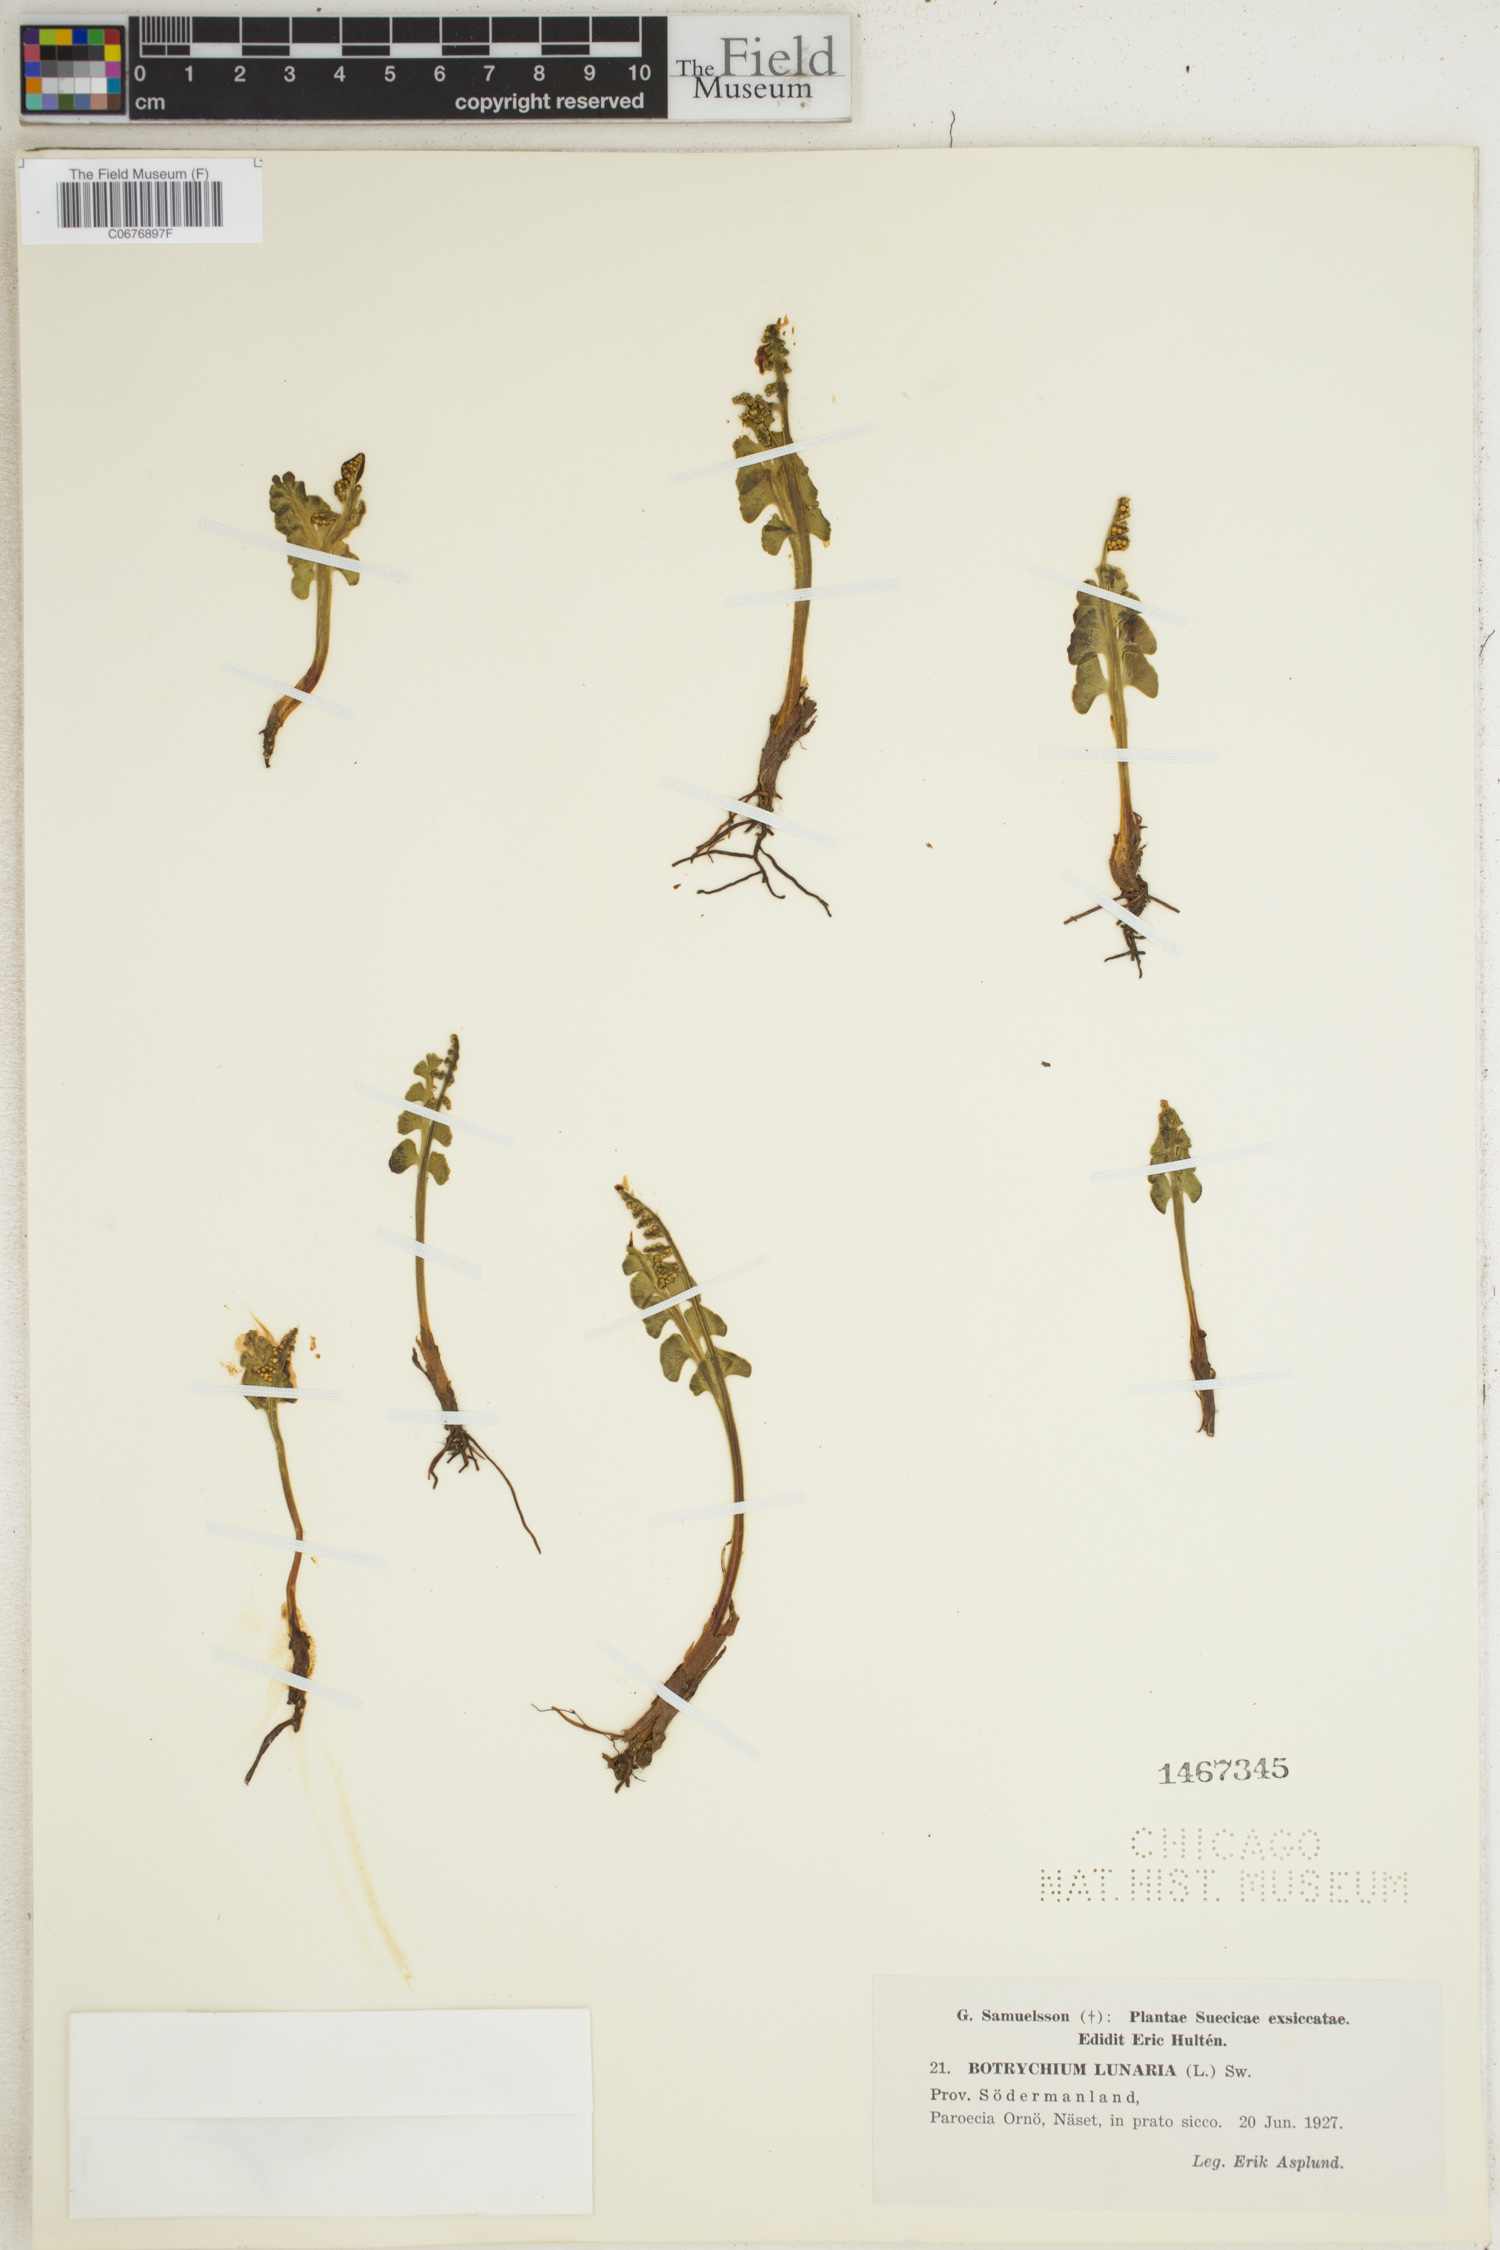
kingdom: Plantae
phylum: Tracheophyta
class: Polypodiopsida
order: Ophioglossales
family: Ophioglossaceae
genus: Botrychium
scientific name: Botrychium lunaria
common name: Moonwort
